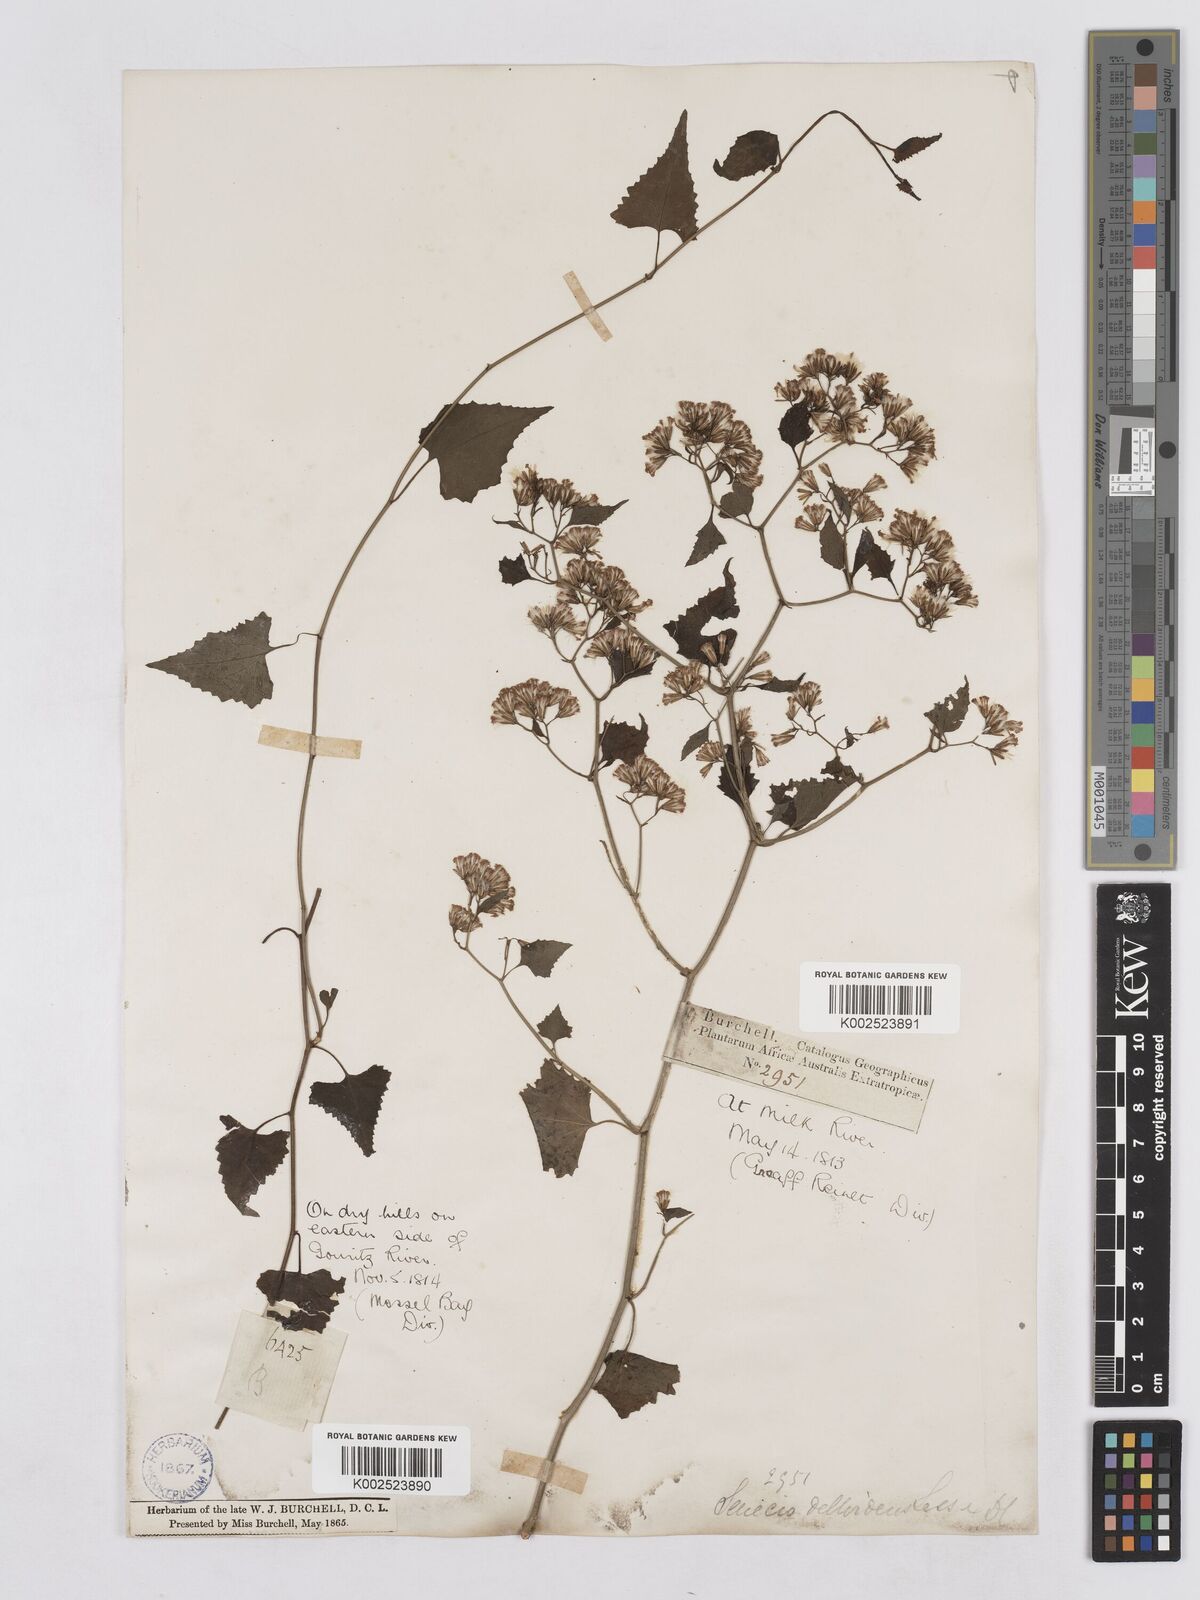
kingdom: Plantae
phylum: Tracheophyta
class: Magnoliopsida
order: Asterales
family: Asteraceae
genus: Senecio
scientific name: Senecio deltoideus
